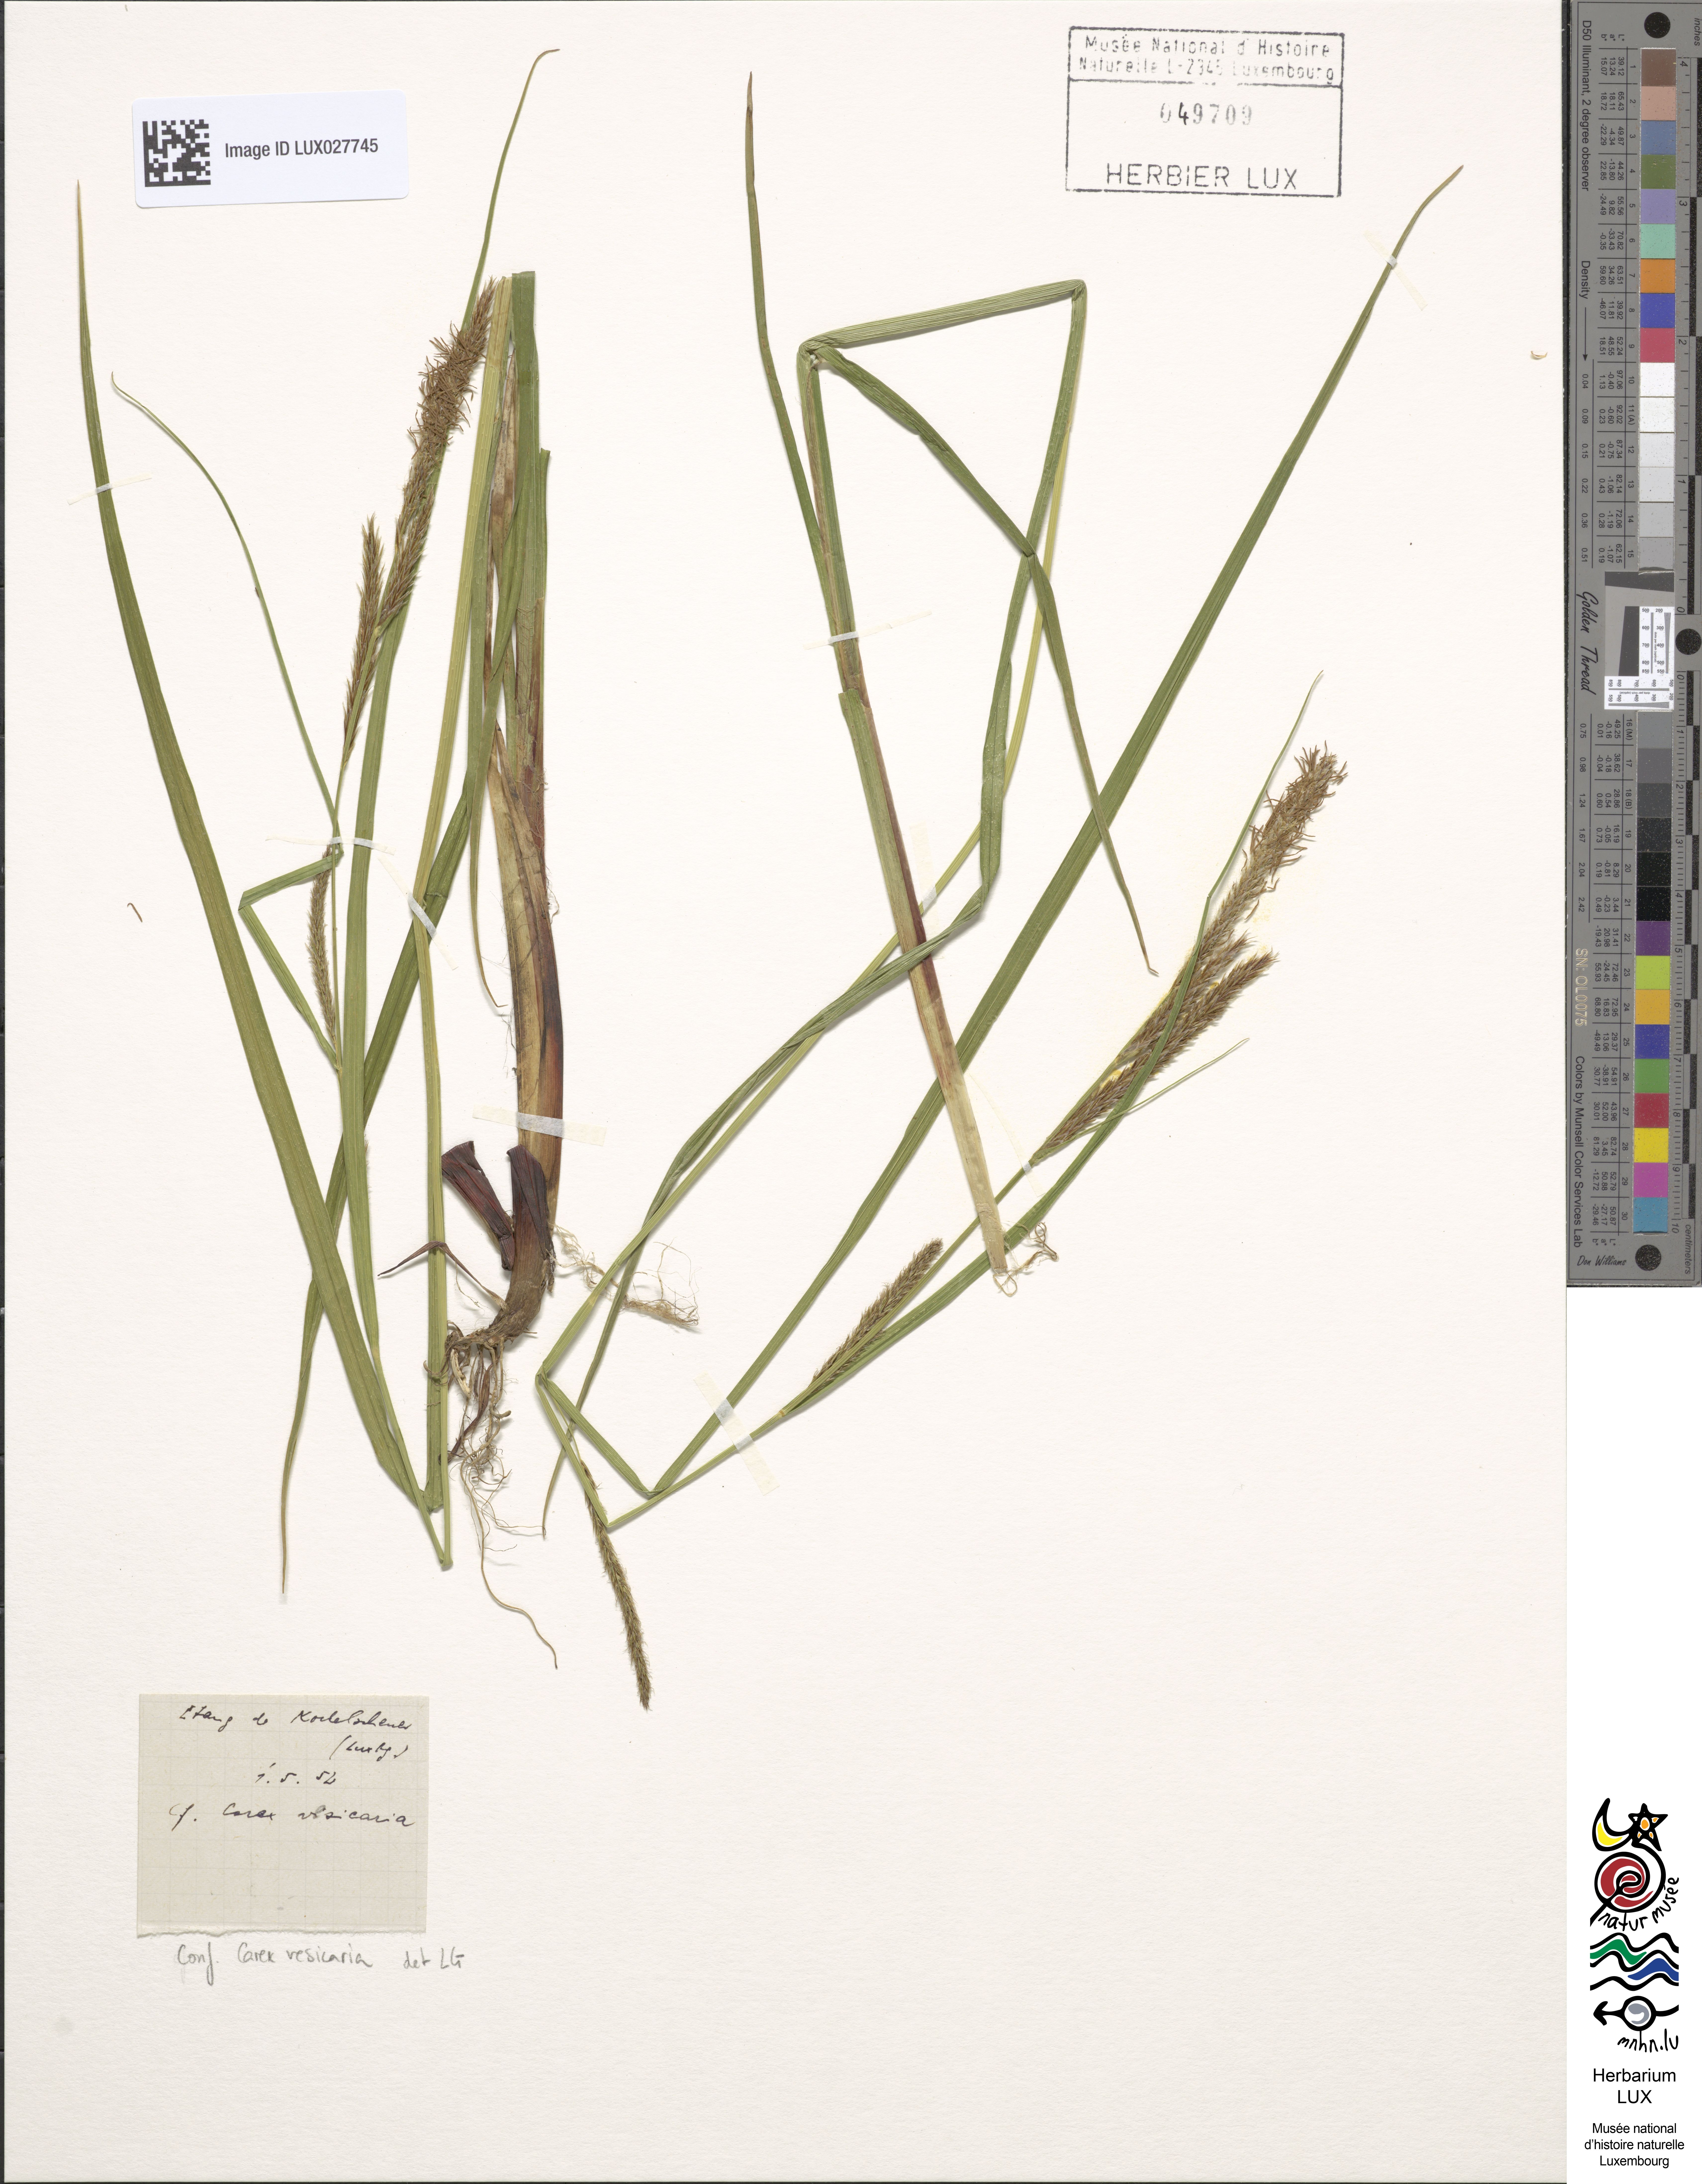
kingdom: Plantae
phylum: Tracheophyta
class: Liliopsida
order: Poales
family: Cyperaceae
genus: Carex
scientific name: Carex vesicaria
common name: Bladder-sedge
